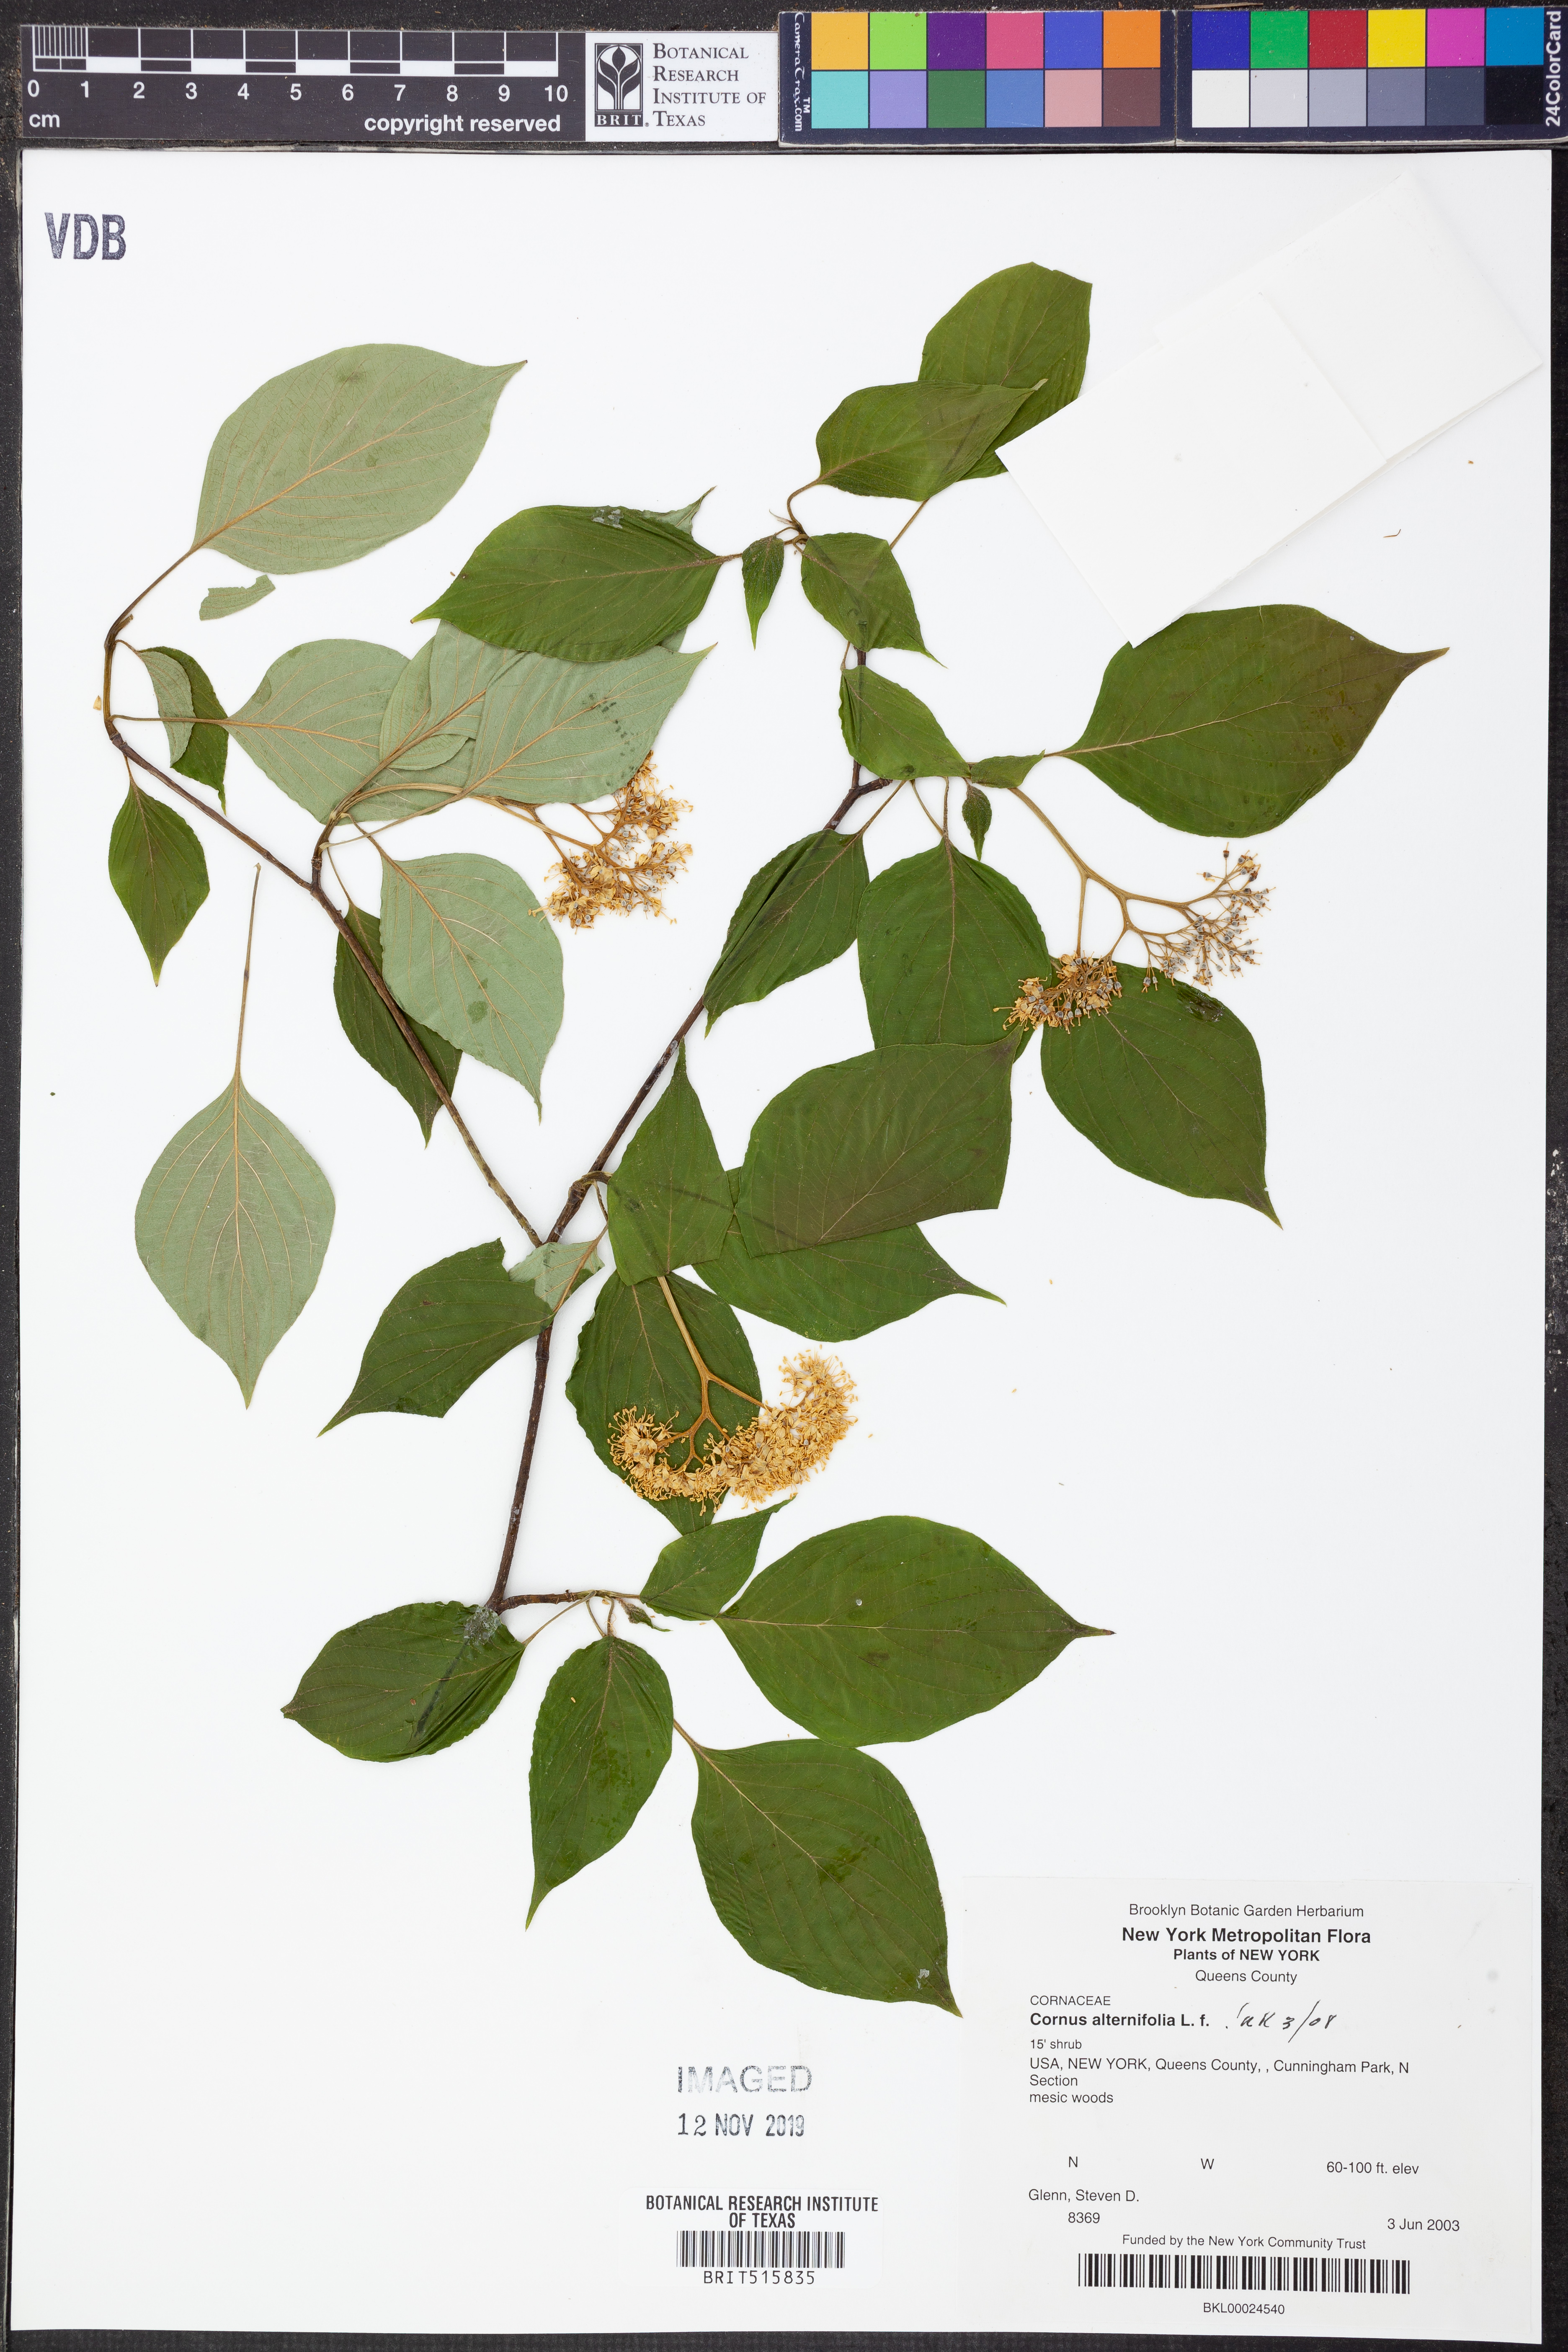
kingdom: Plantae
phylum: Tracheophyta
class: Magnoliopsida
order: Cornales
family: Cornaceae
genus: Cornus
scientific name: Cornus alternifolia
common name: Pagoda dogwood
